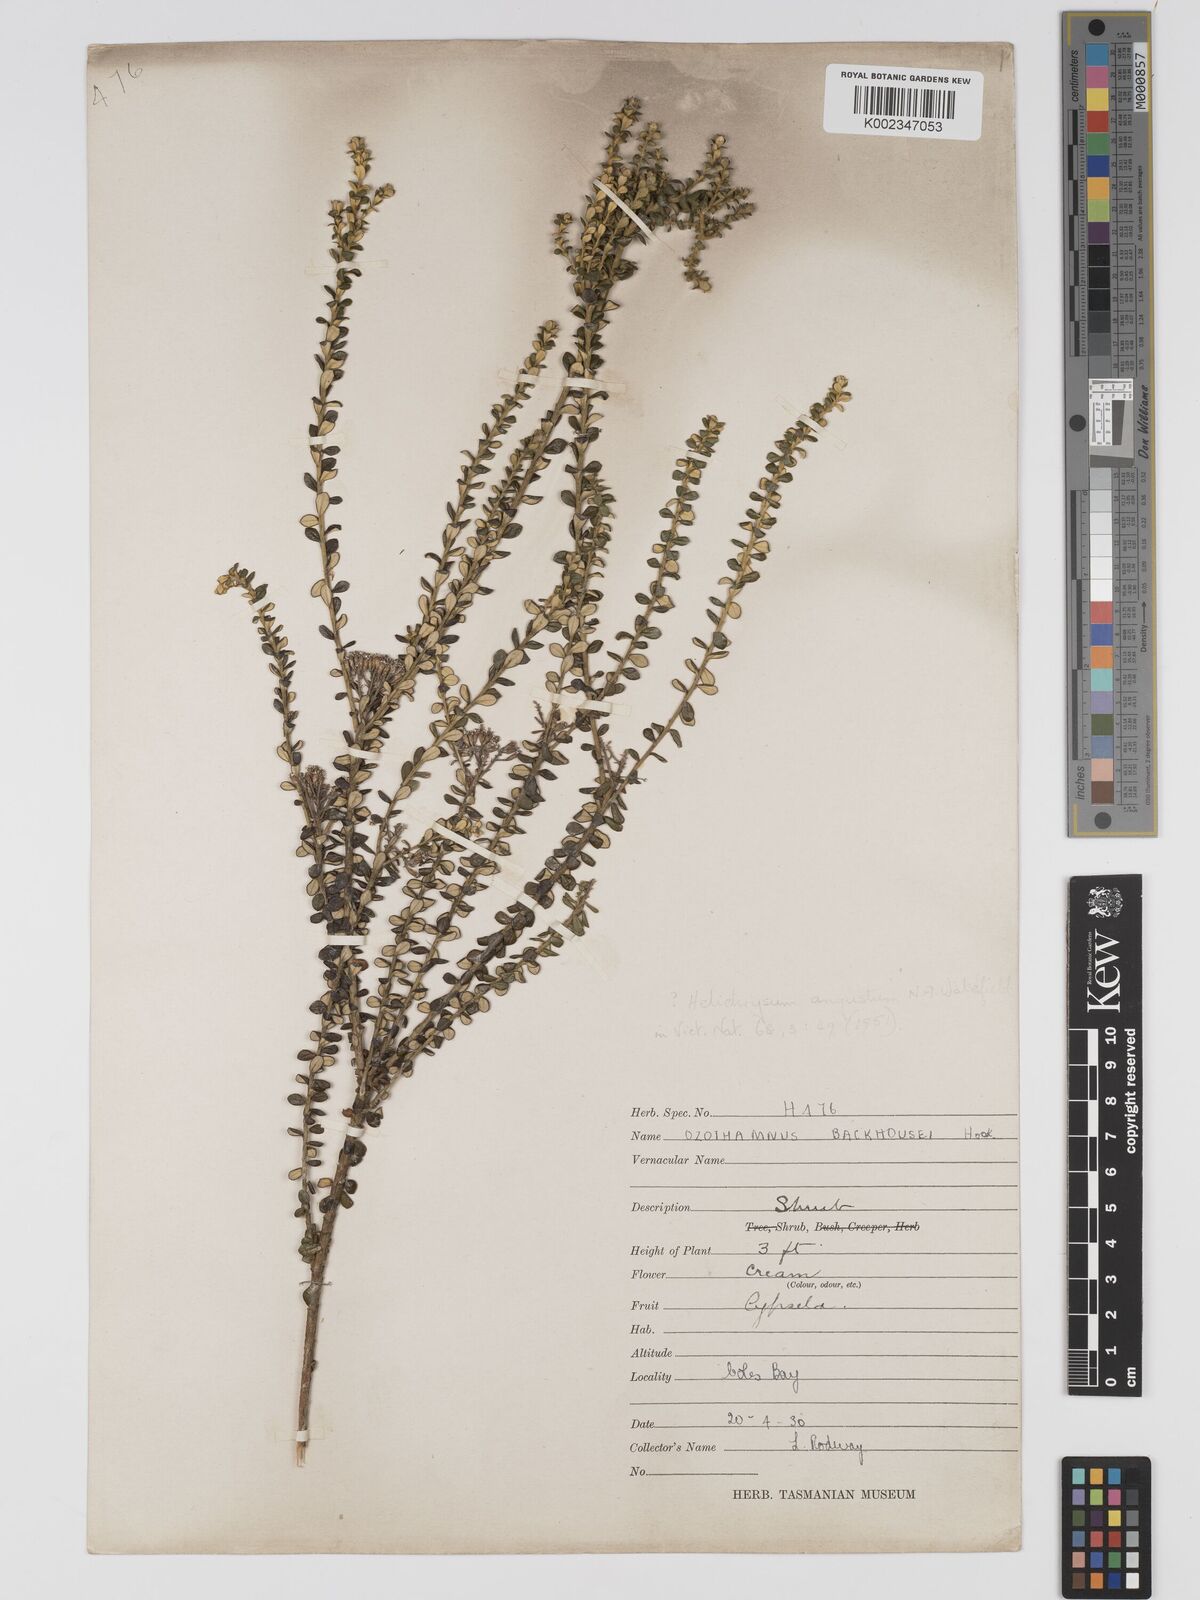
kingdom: Plantae
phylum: Tracheophyta
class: Magnoliopsida
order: Asterales
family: Asteraceae
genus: Odixia
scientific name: Odixia angusta
